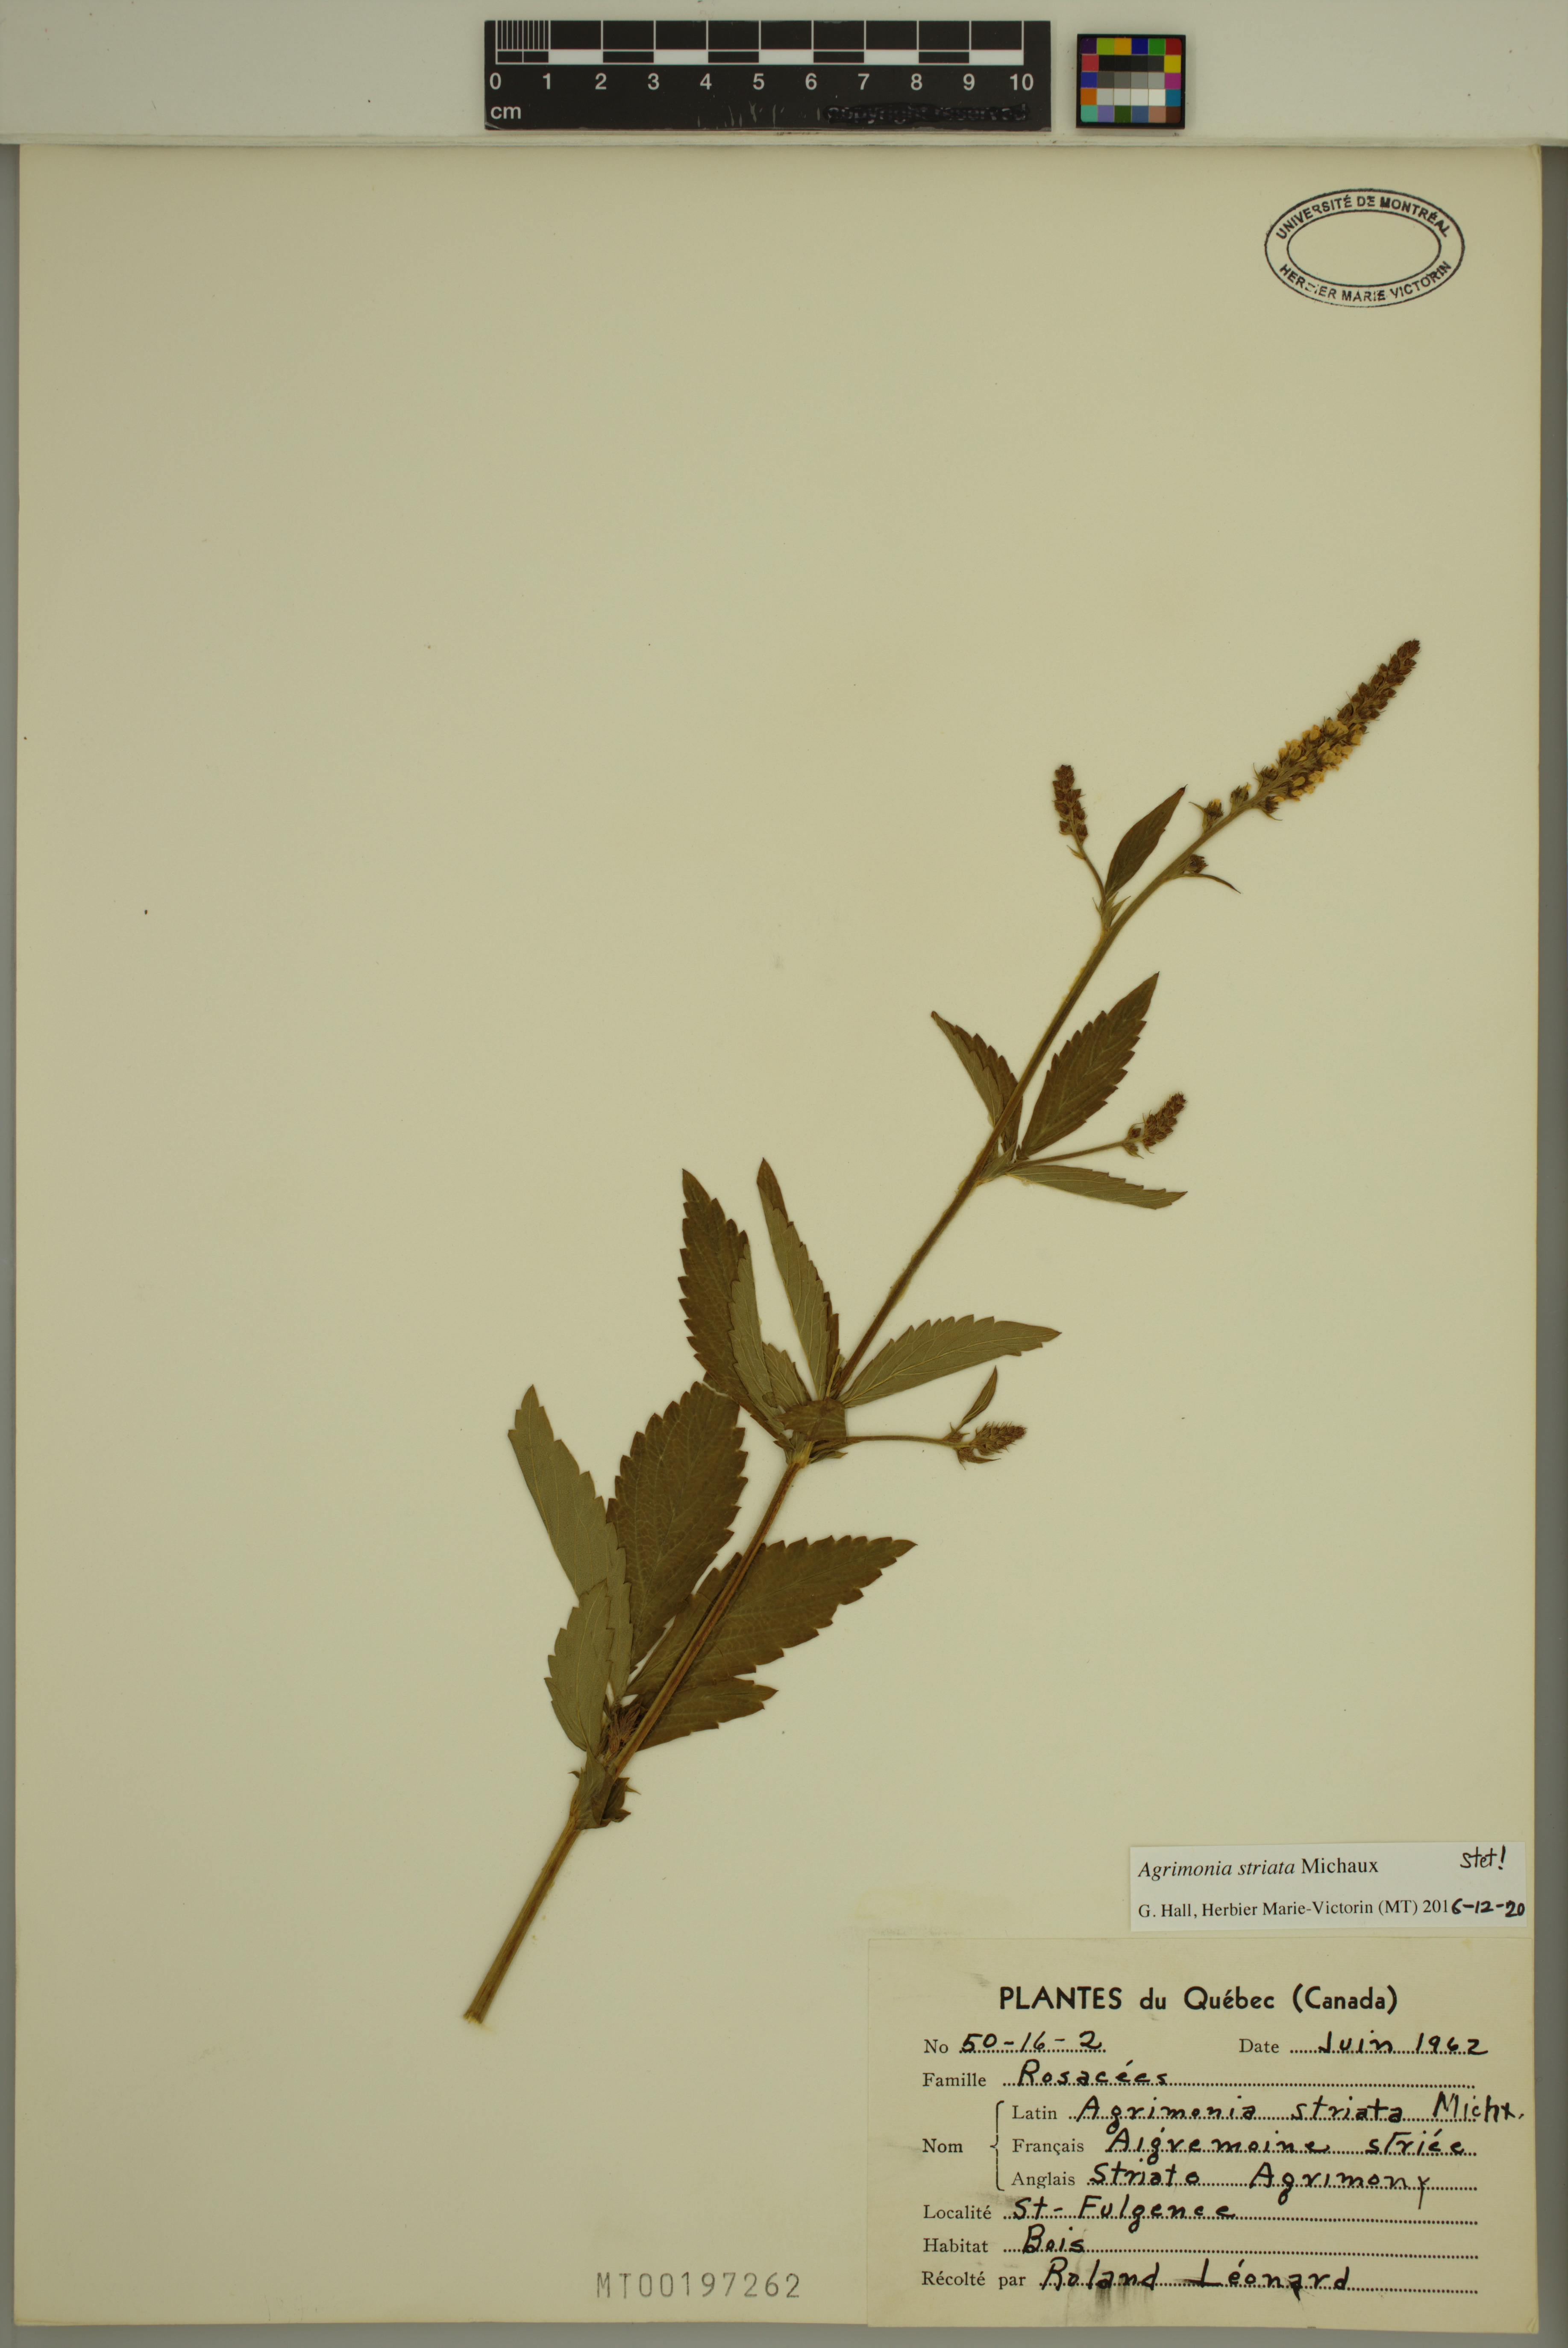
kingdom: Plantae
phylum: Tracheophyta
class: Magnoliopsida
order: Rosales
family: Rosaceae
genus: Agrimonia
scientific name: Agrimonia striata
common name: Britton's agrimony
